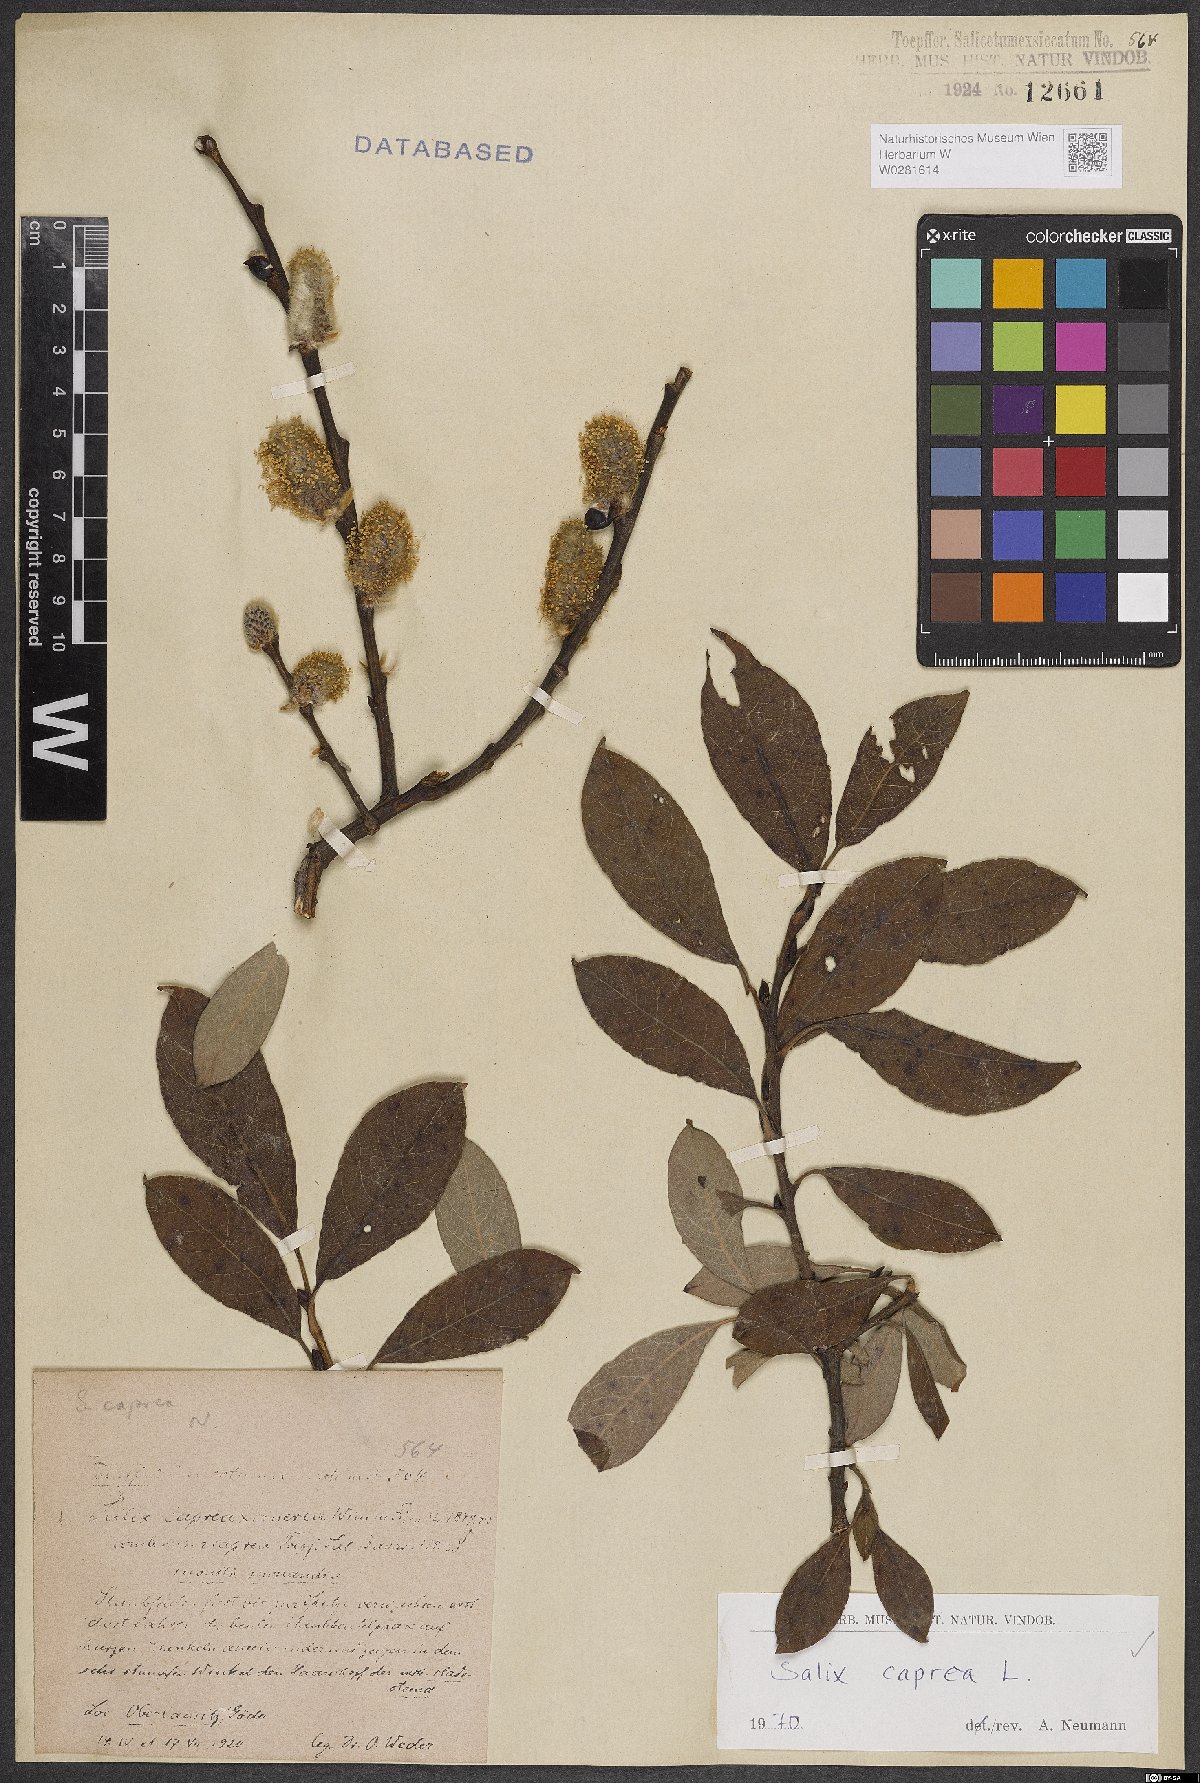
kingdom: Plantae
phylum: Tracheophyta
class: Magnoliopsida
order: Malpighiales
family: Salicaceae
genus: Salix
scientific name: Salix caprea
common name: Goat willow
